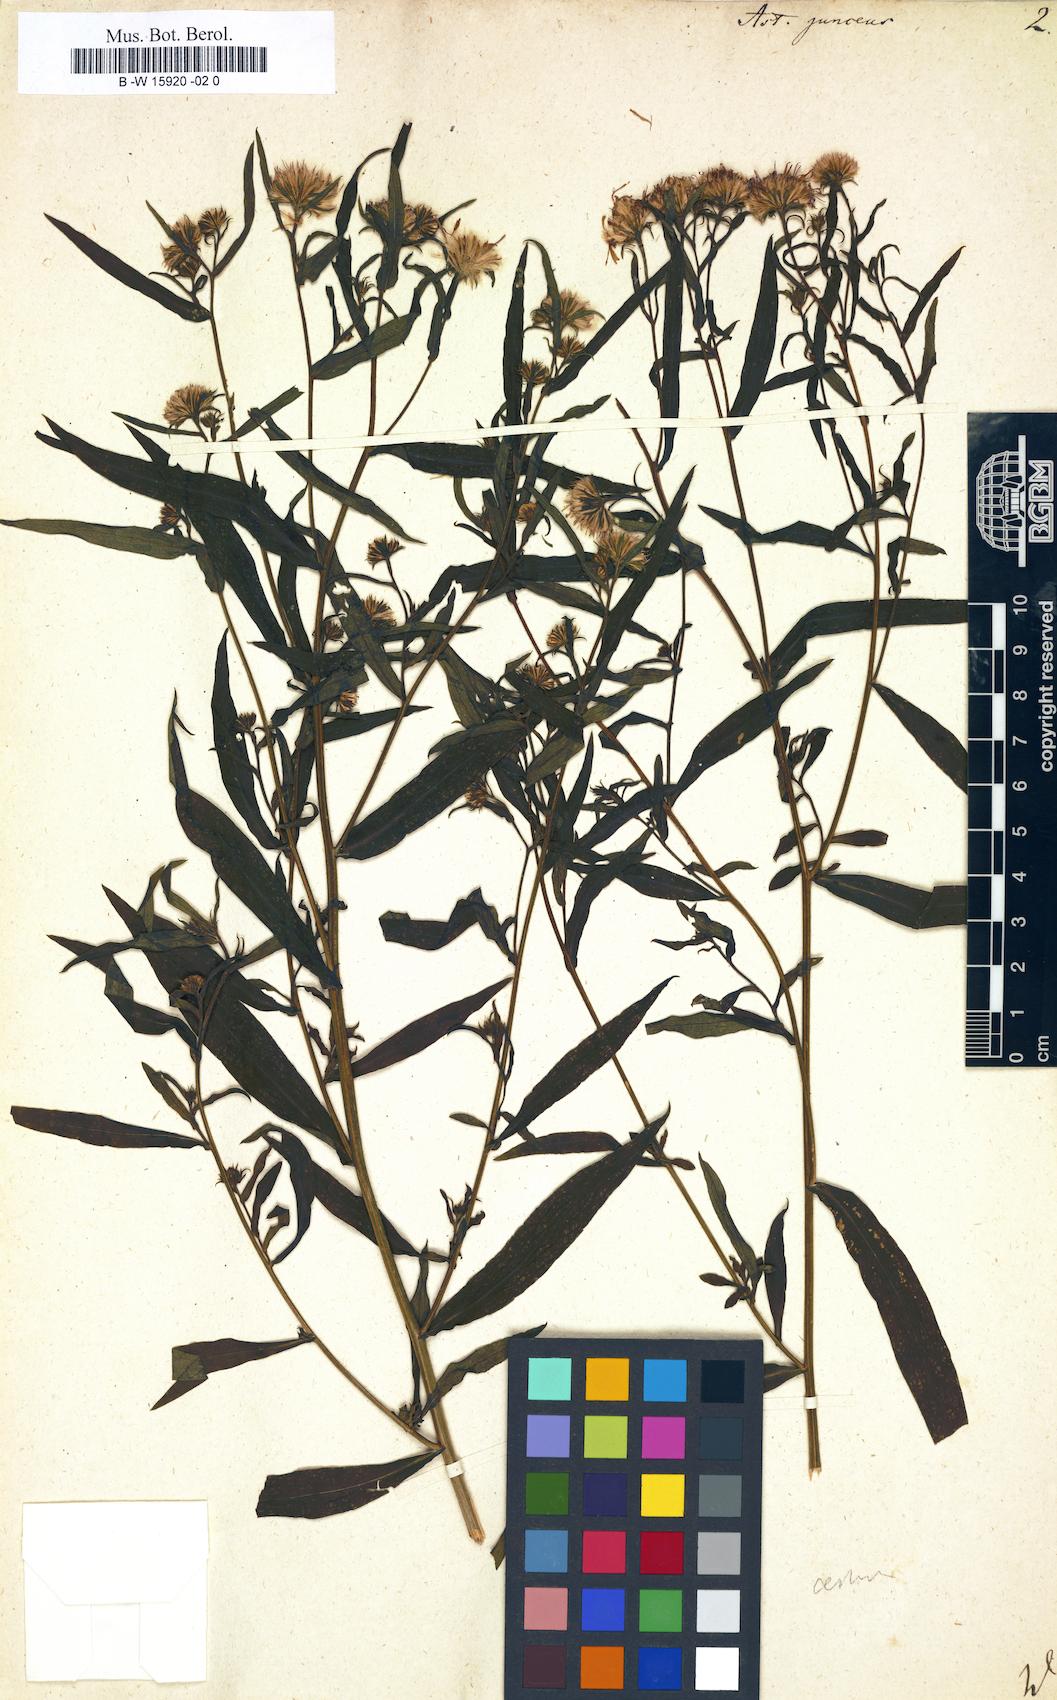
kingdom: Plantae
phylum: Tracheophyta
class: Magnoliopsida
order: Asterales
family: Asteraceae
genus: Symphyotrichum
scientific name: Symphyotrichum
